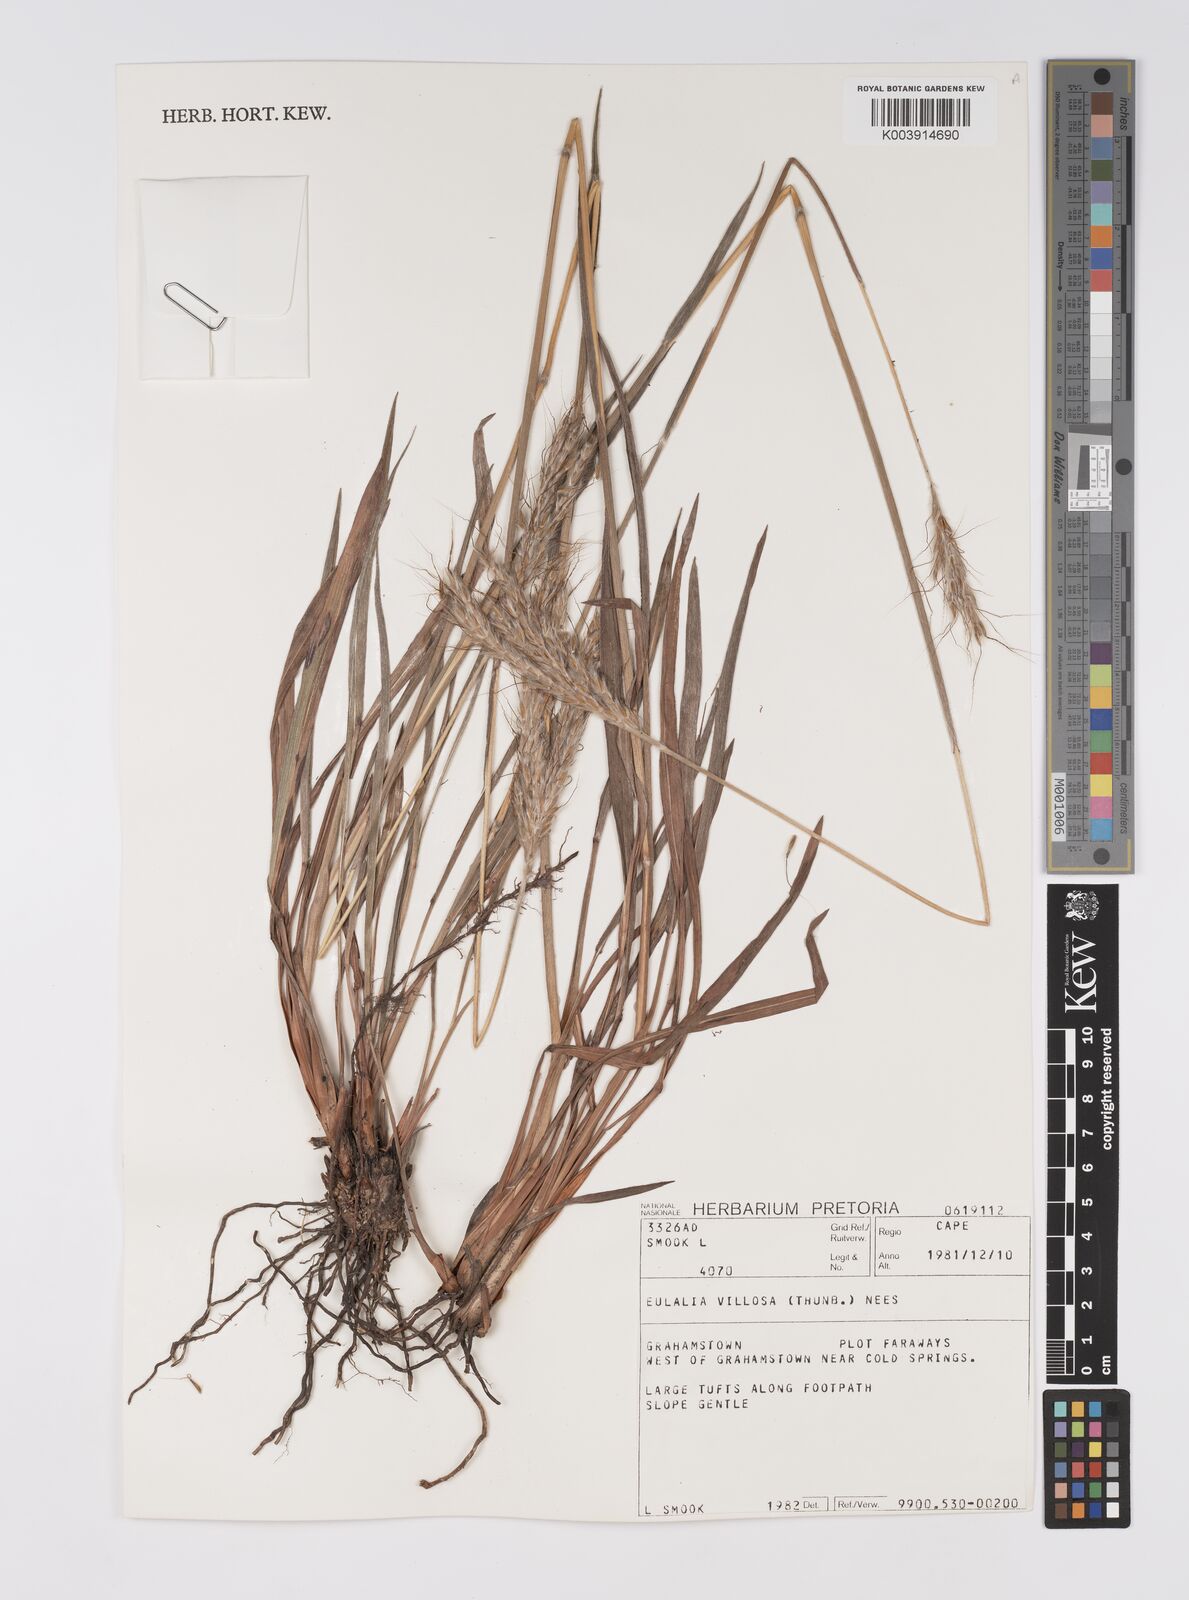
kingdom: Plantae
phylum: Tracheophyta
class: Liliopsida
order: Poales
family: Poaceae
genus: Eulalia
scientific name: Eulalia villosa
